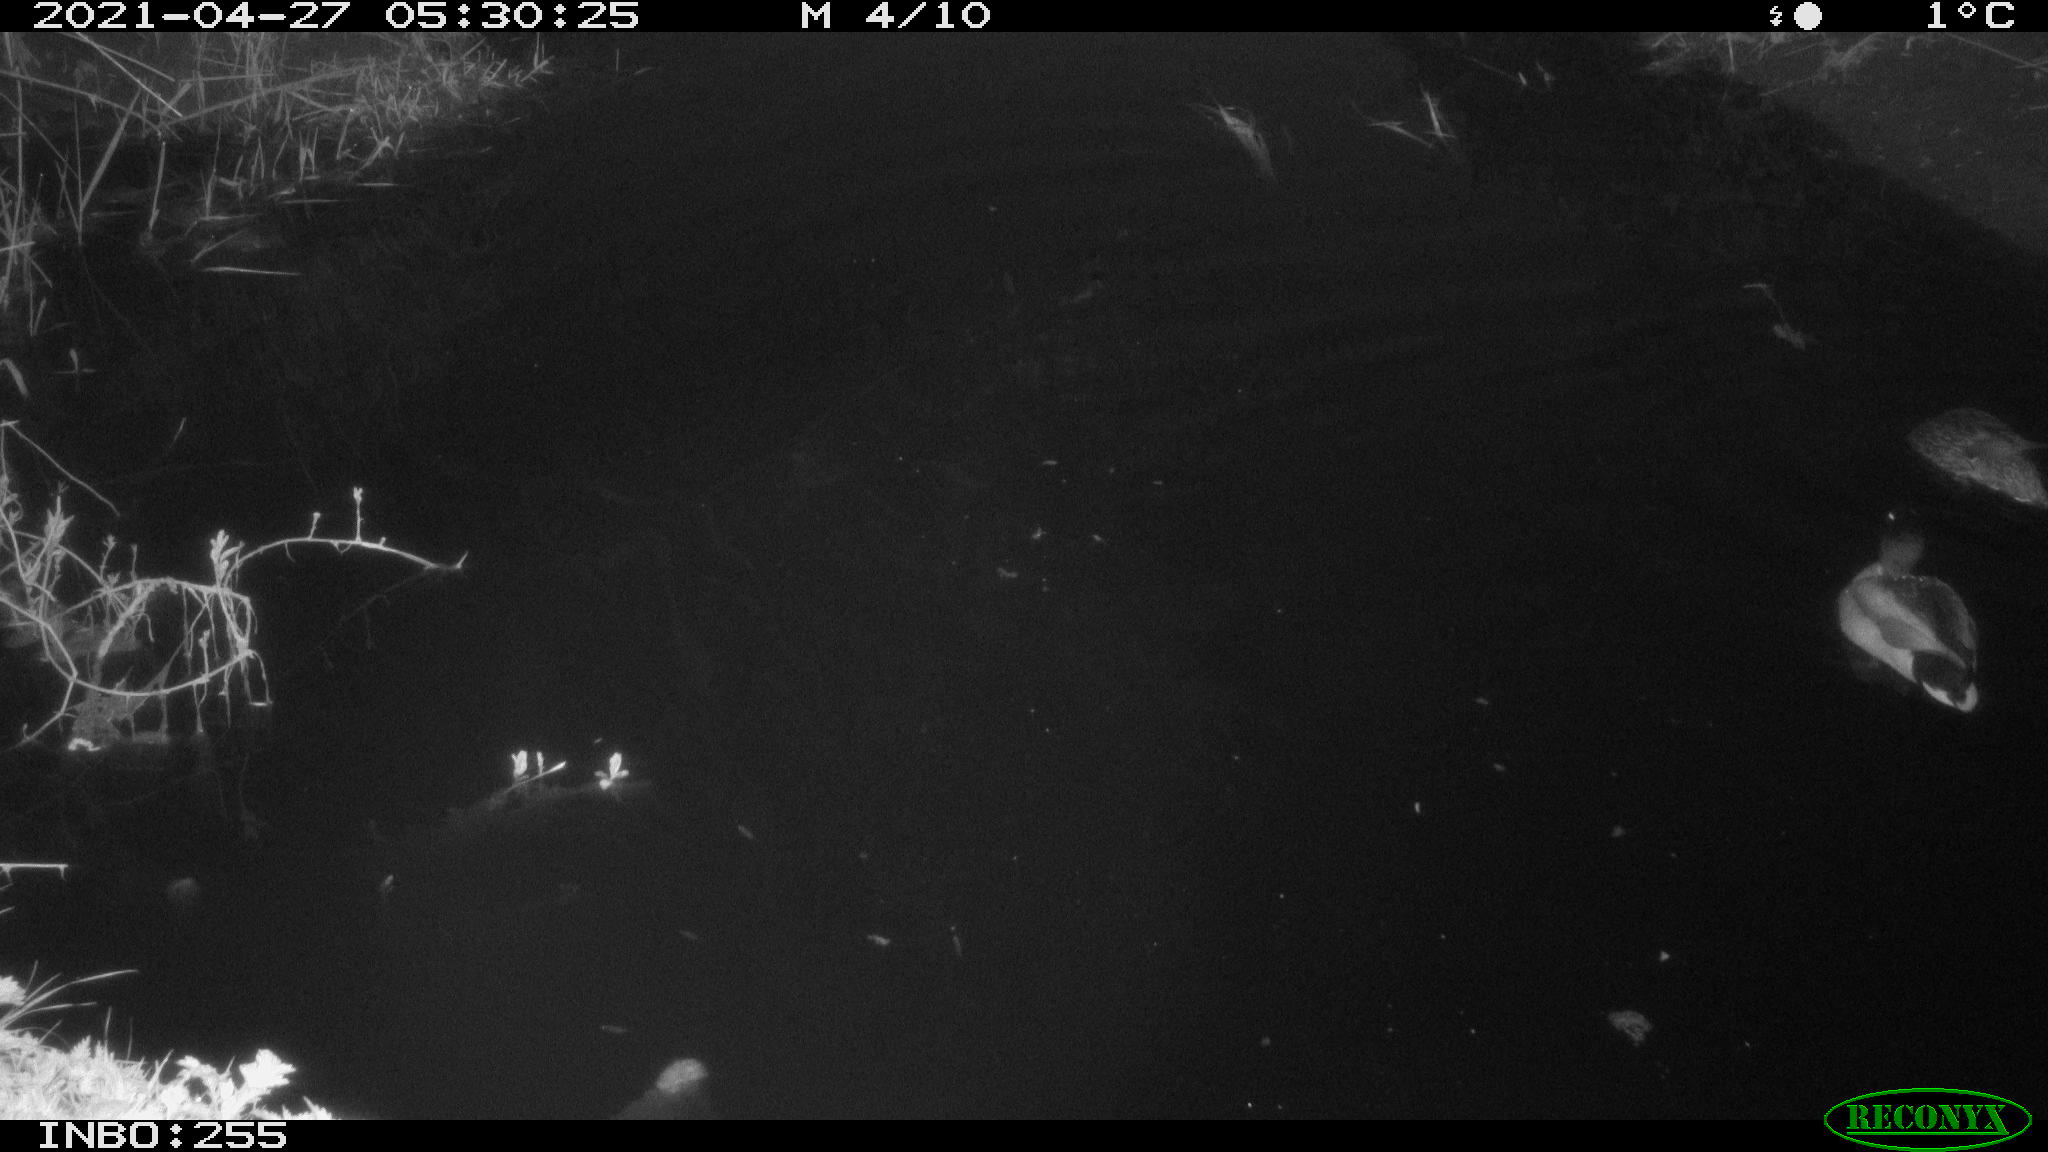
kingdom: Animalia
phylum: Chordata
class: Aves
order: Anseriformes
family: Anatidae
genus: Anas
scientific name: Anas platyrhynchos
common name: Mallard
